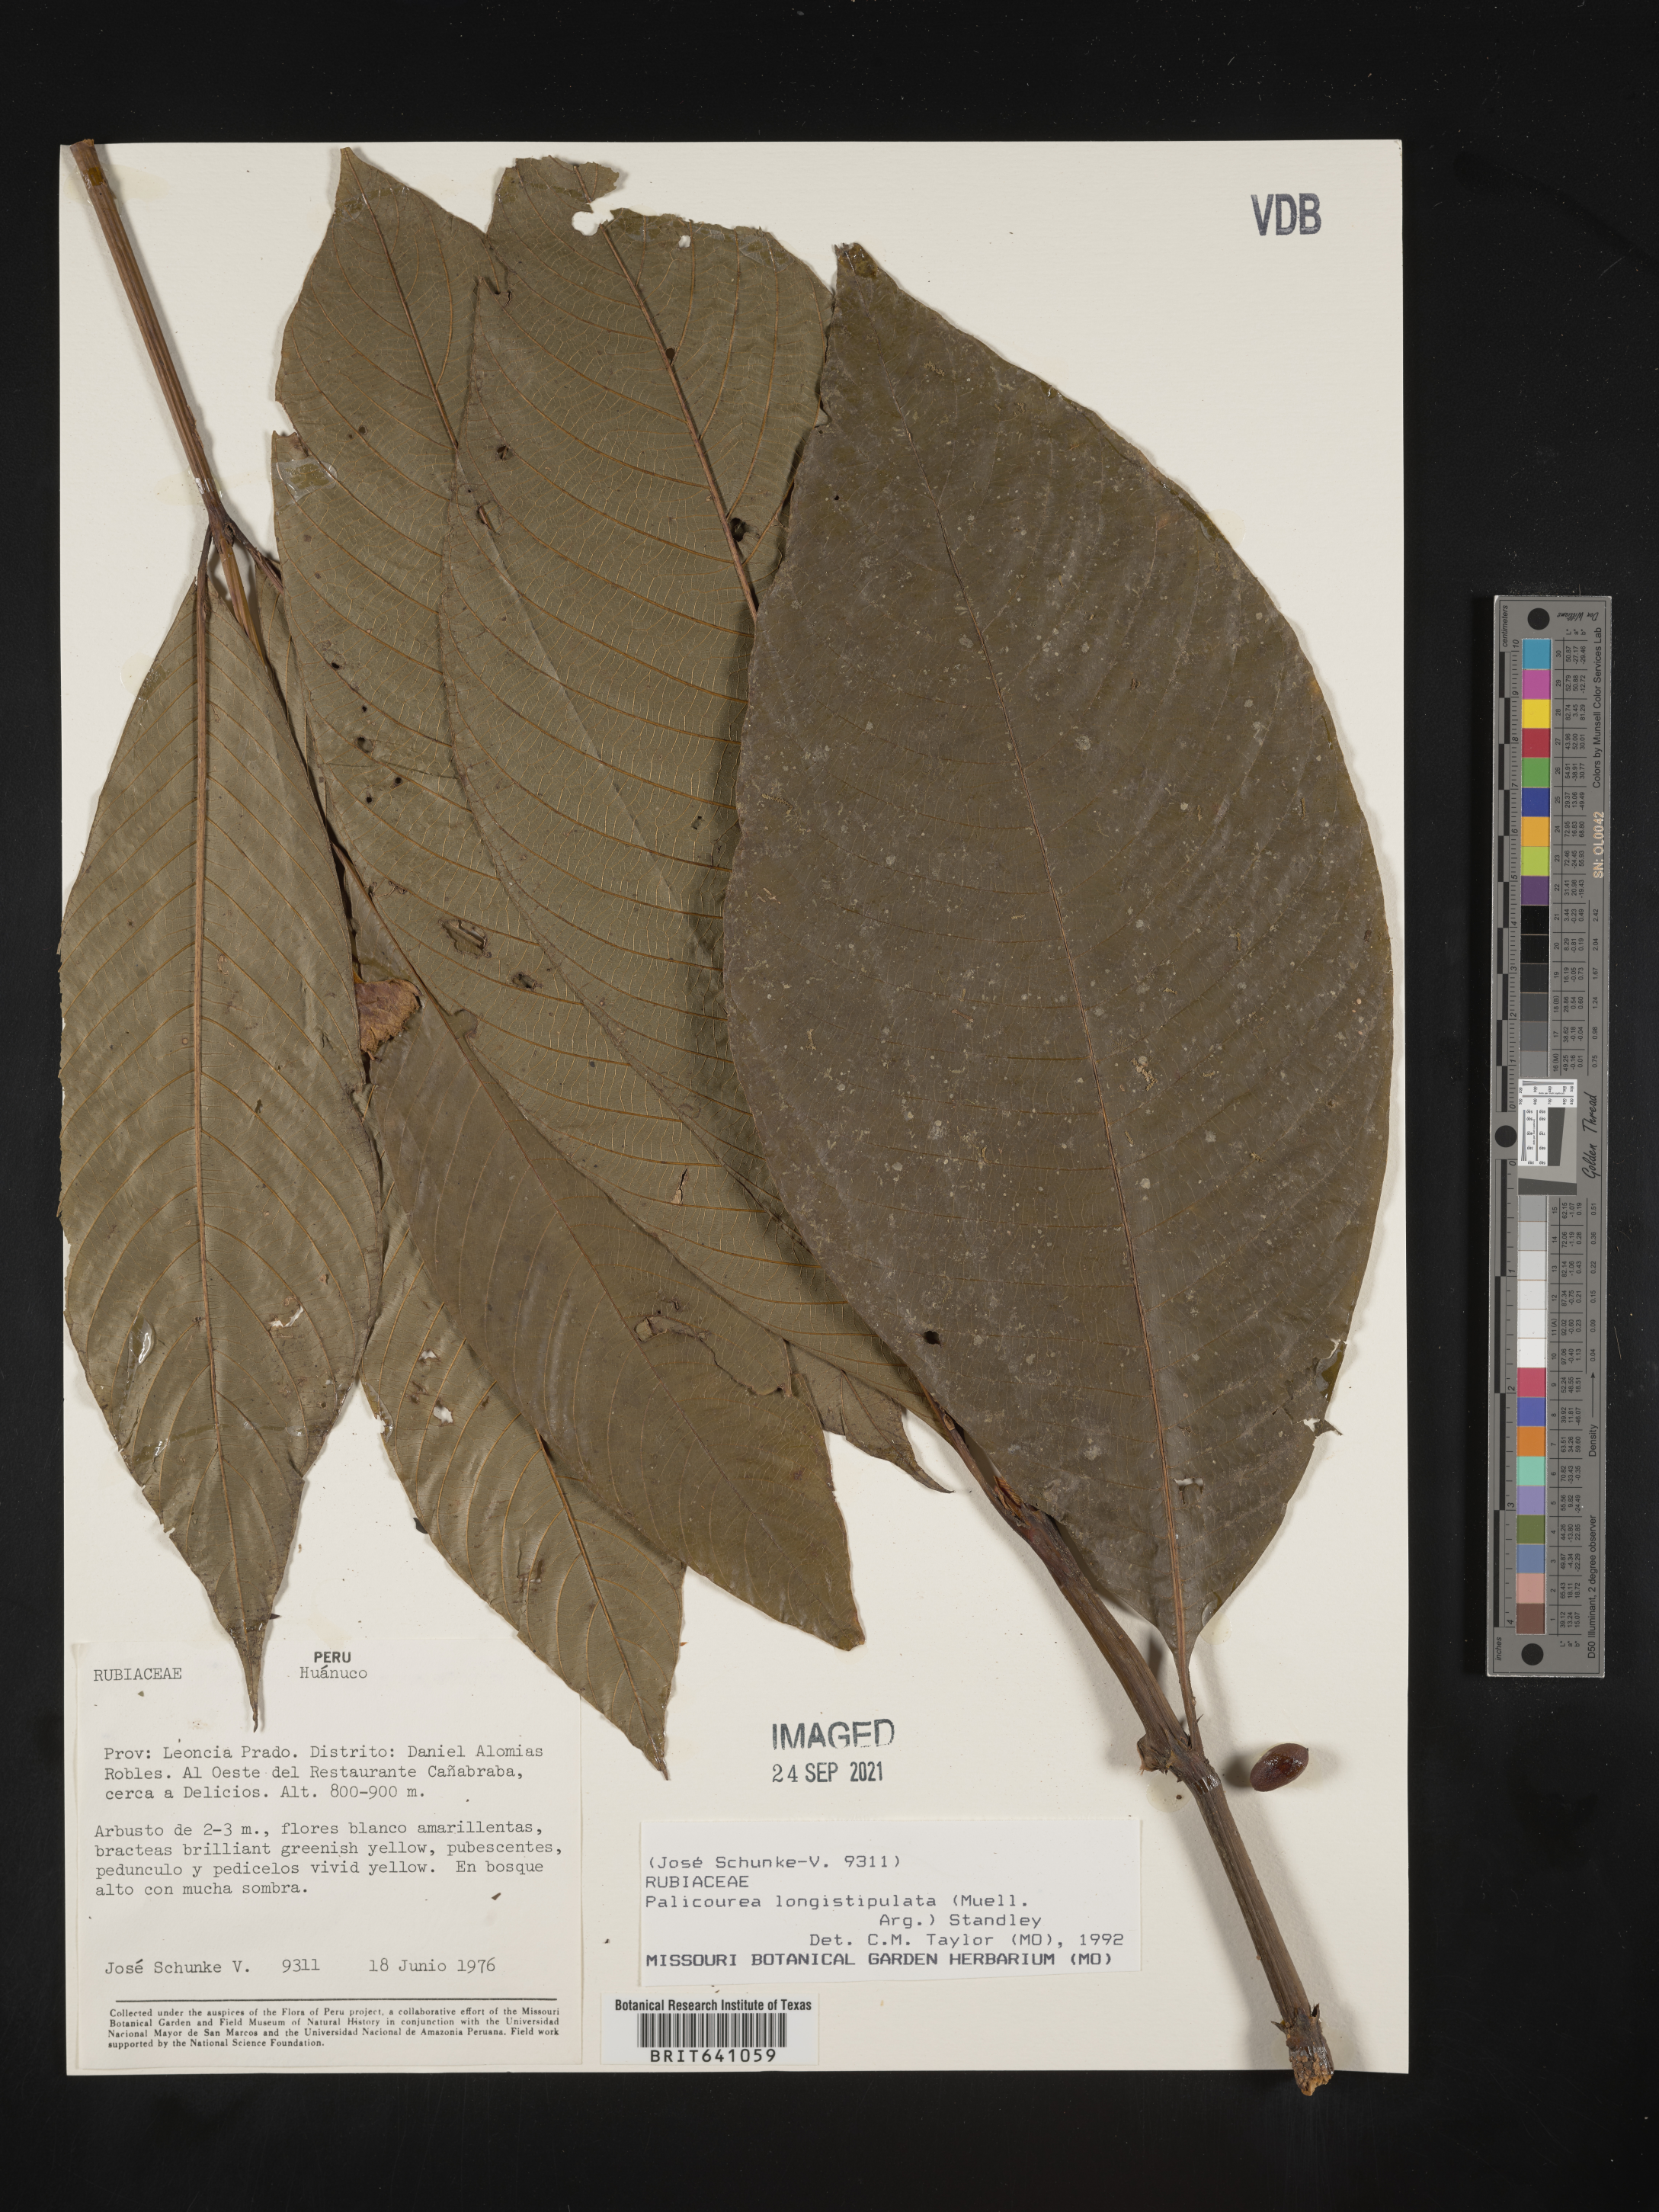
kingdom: Plantae
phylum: Tracheophyta
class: Magnoliopsida
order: Gentianales
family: Rubiaceae
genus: Palicourea
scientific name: Palicourea
